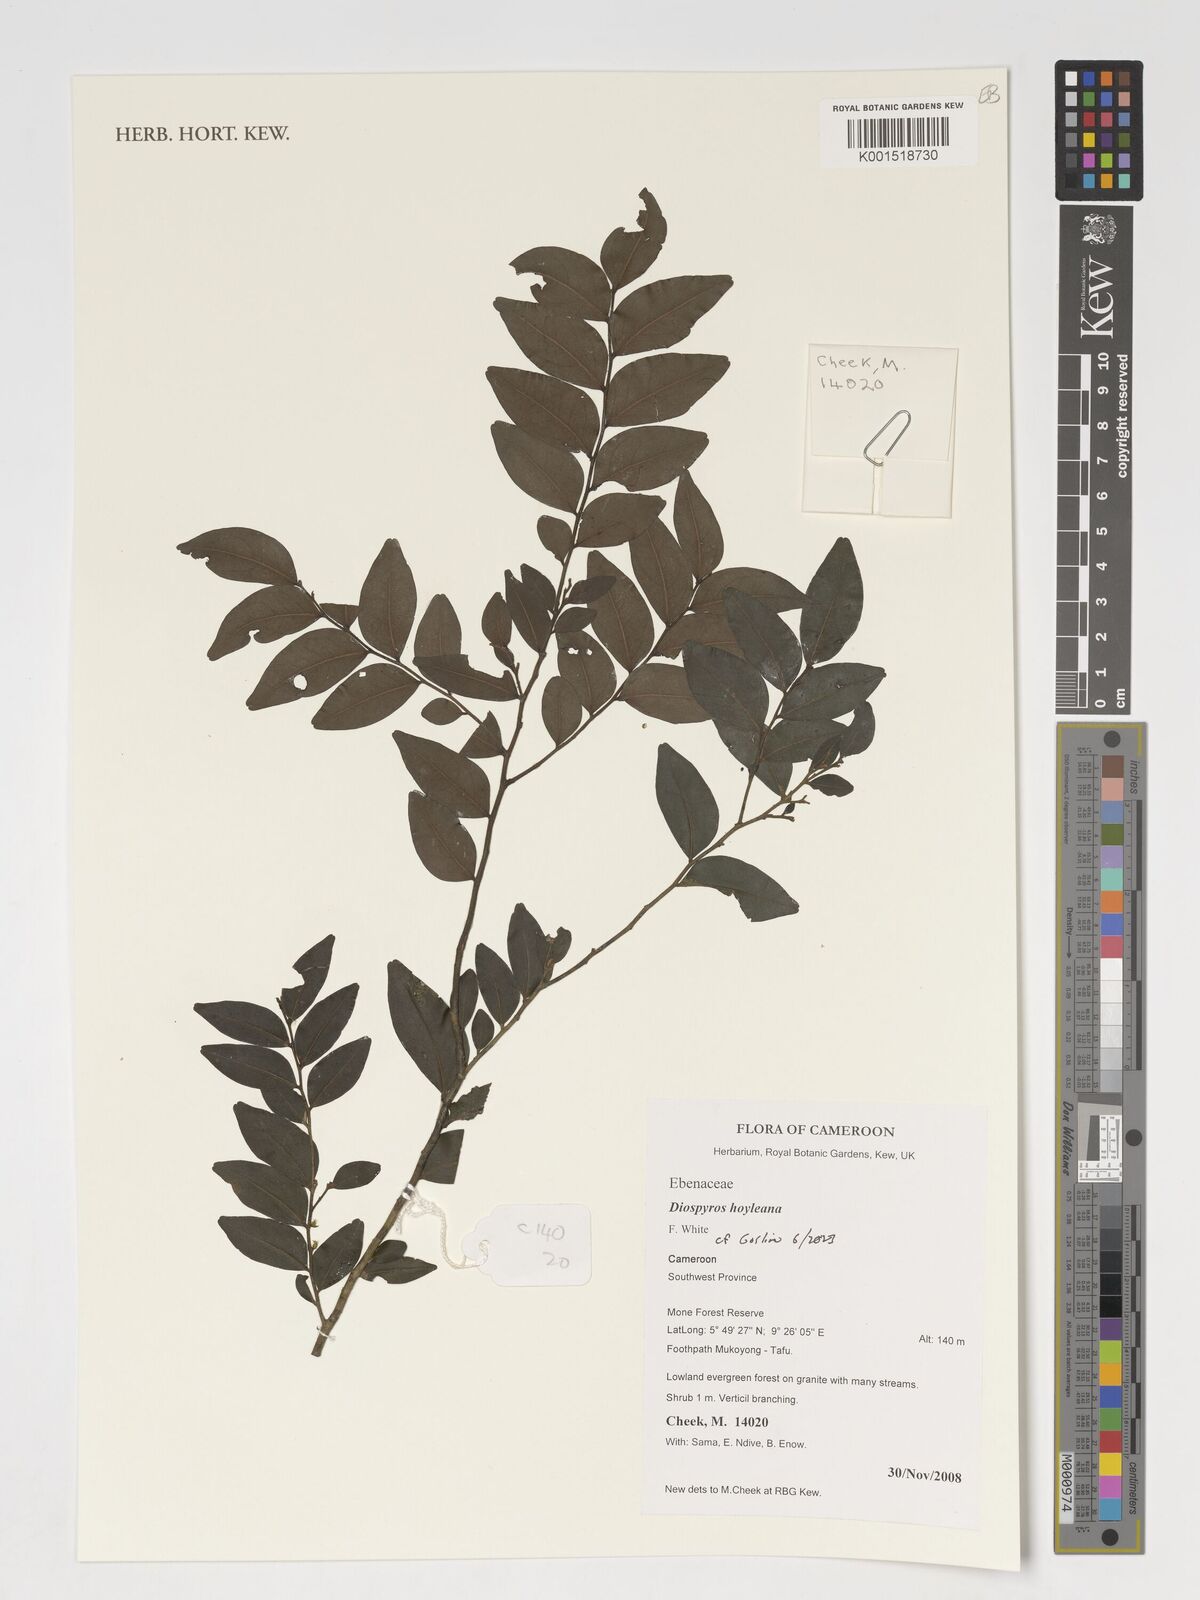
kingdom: Plantae
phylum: Tracheophyta
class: Magnoliopsida
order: Ericales
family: Ebenaceae
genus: Diospyros
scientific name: Diospyros hoyleana
